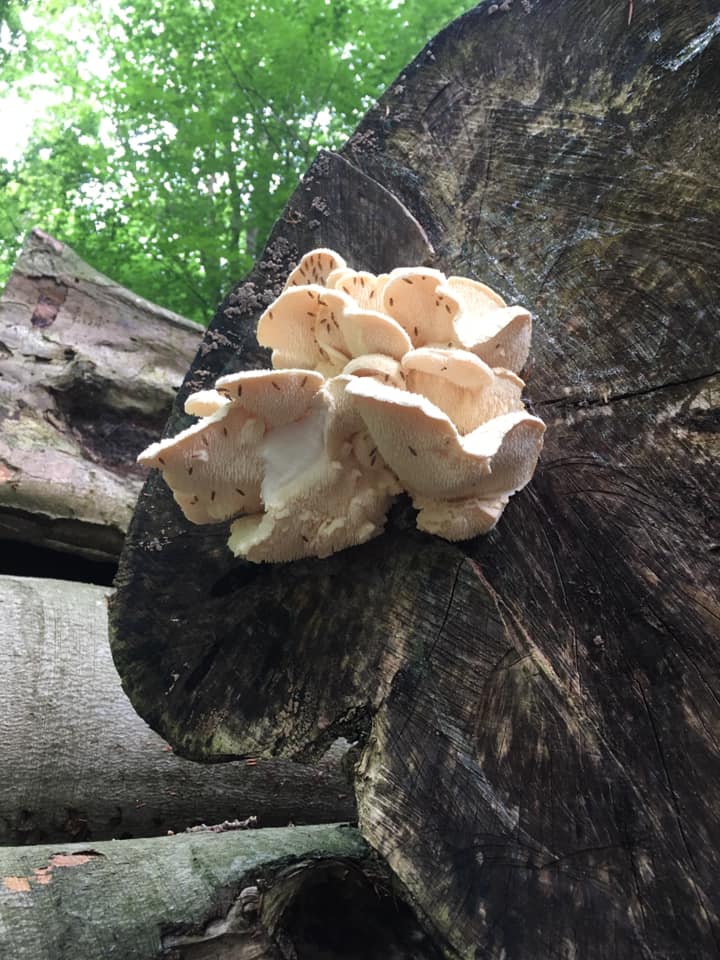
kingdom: Fungi
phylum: Basidiomycota
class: Agaricomycetes
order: Russulales
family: Hericiaceae
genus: Hericium
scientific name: Hericium cirrhatum
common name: børstepigsvamp
